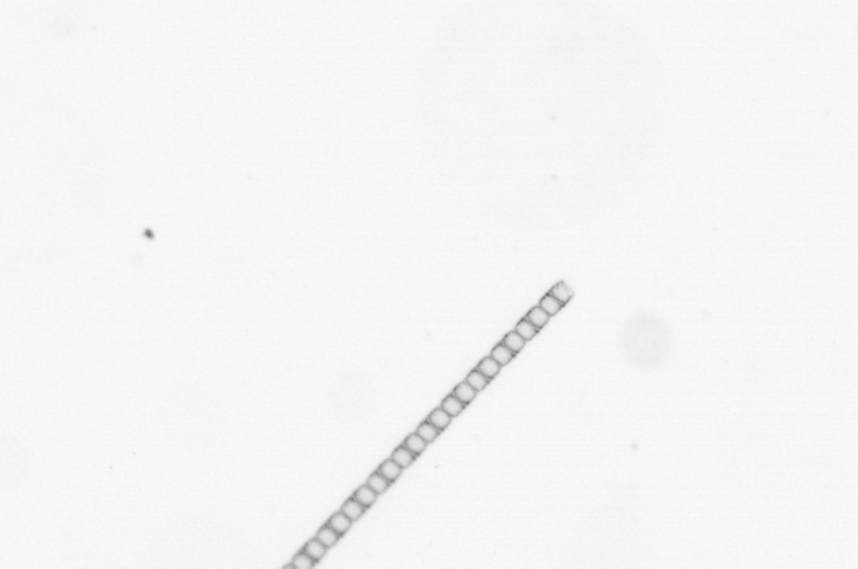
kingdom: Chromista
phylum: Ochrophyta
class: Bacillariophyceae
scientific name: Bacillariophyceae
